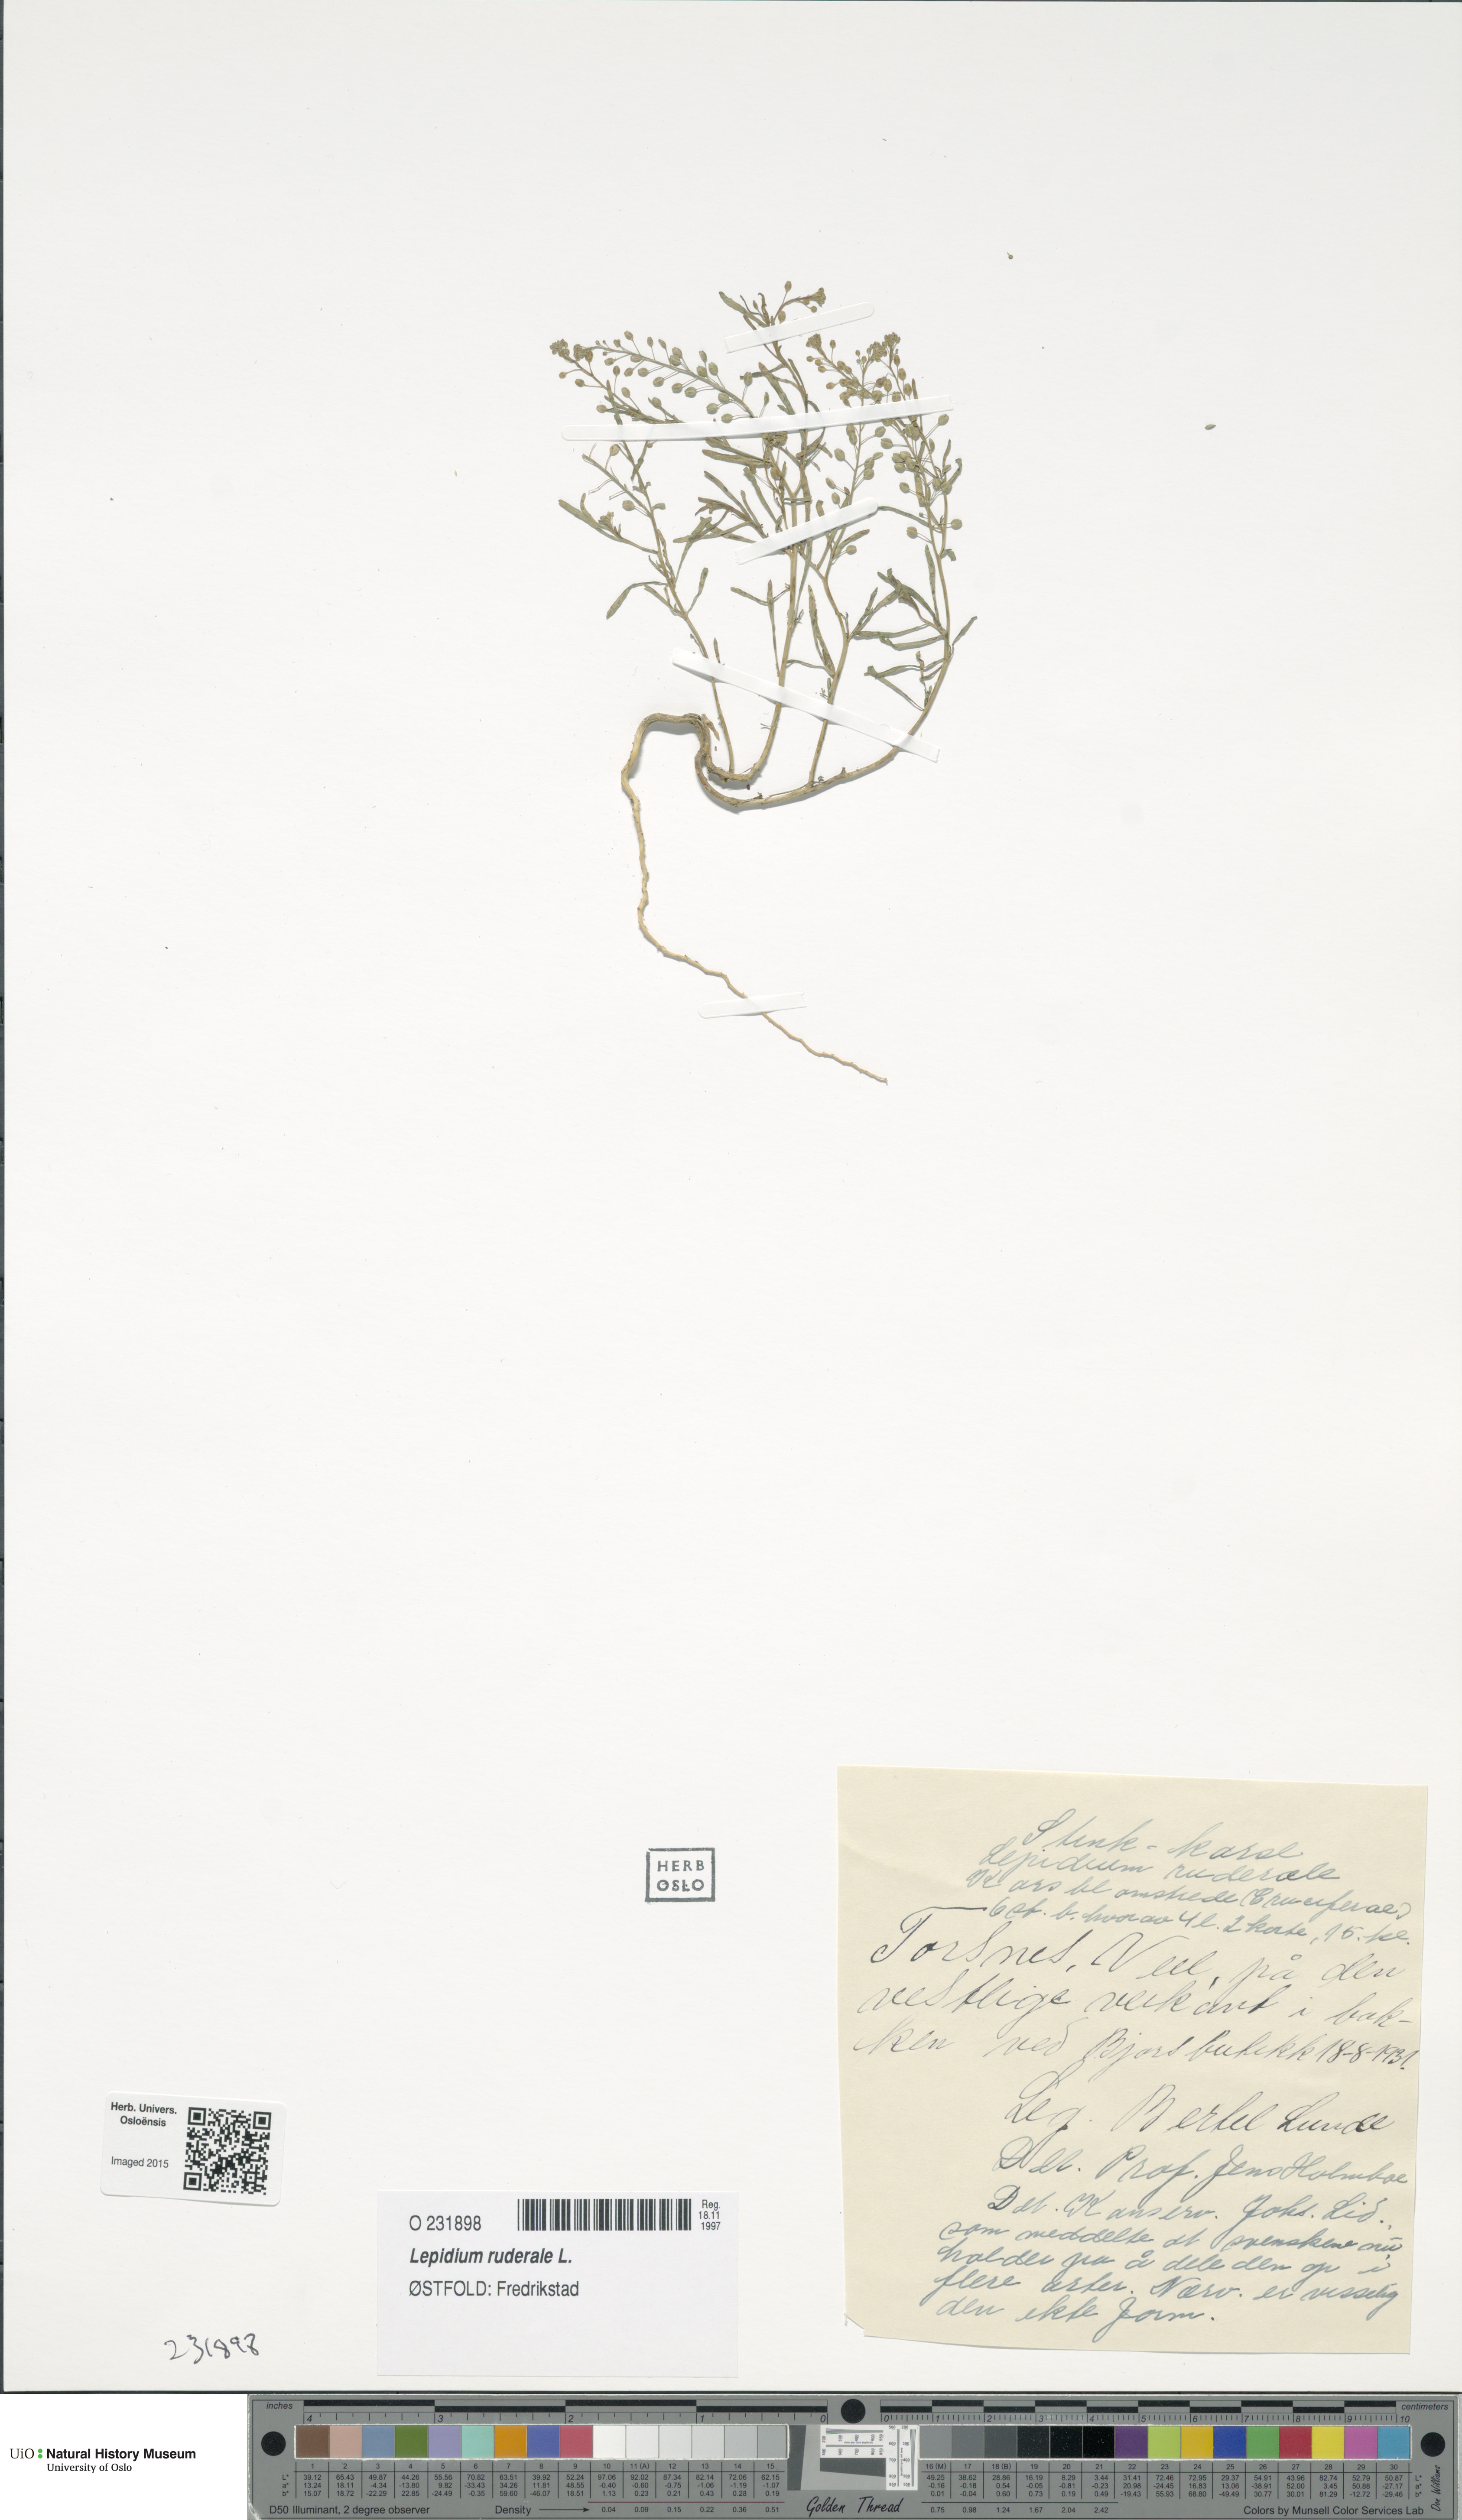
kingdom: Plantae
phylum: Tracheophyta
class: Magnoliopsida
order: Brassicales
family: Brassicaceae
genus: Lepidium
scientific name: Lepidium ruderale
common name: Narrow-leaved pepperwort
